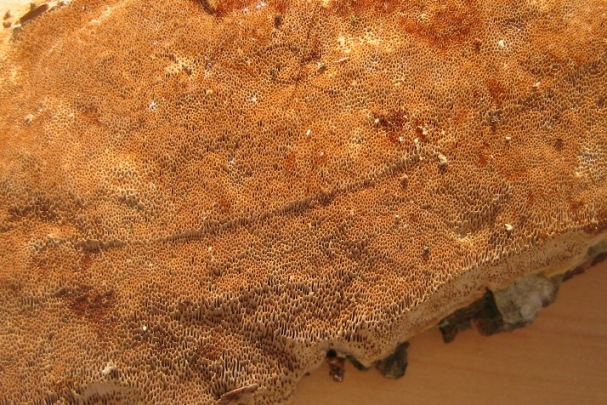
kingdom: Fungi
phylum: Basidiomycota
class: Agaricomycetes
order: Hymenochaetales
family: Hymenochaetaceae
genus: Fuscoporia
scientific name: Fuscoporia ferrea
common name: skorpe-ildporesvamp
